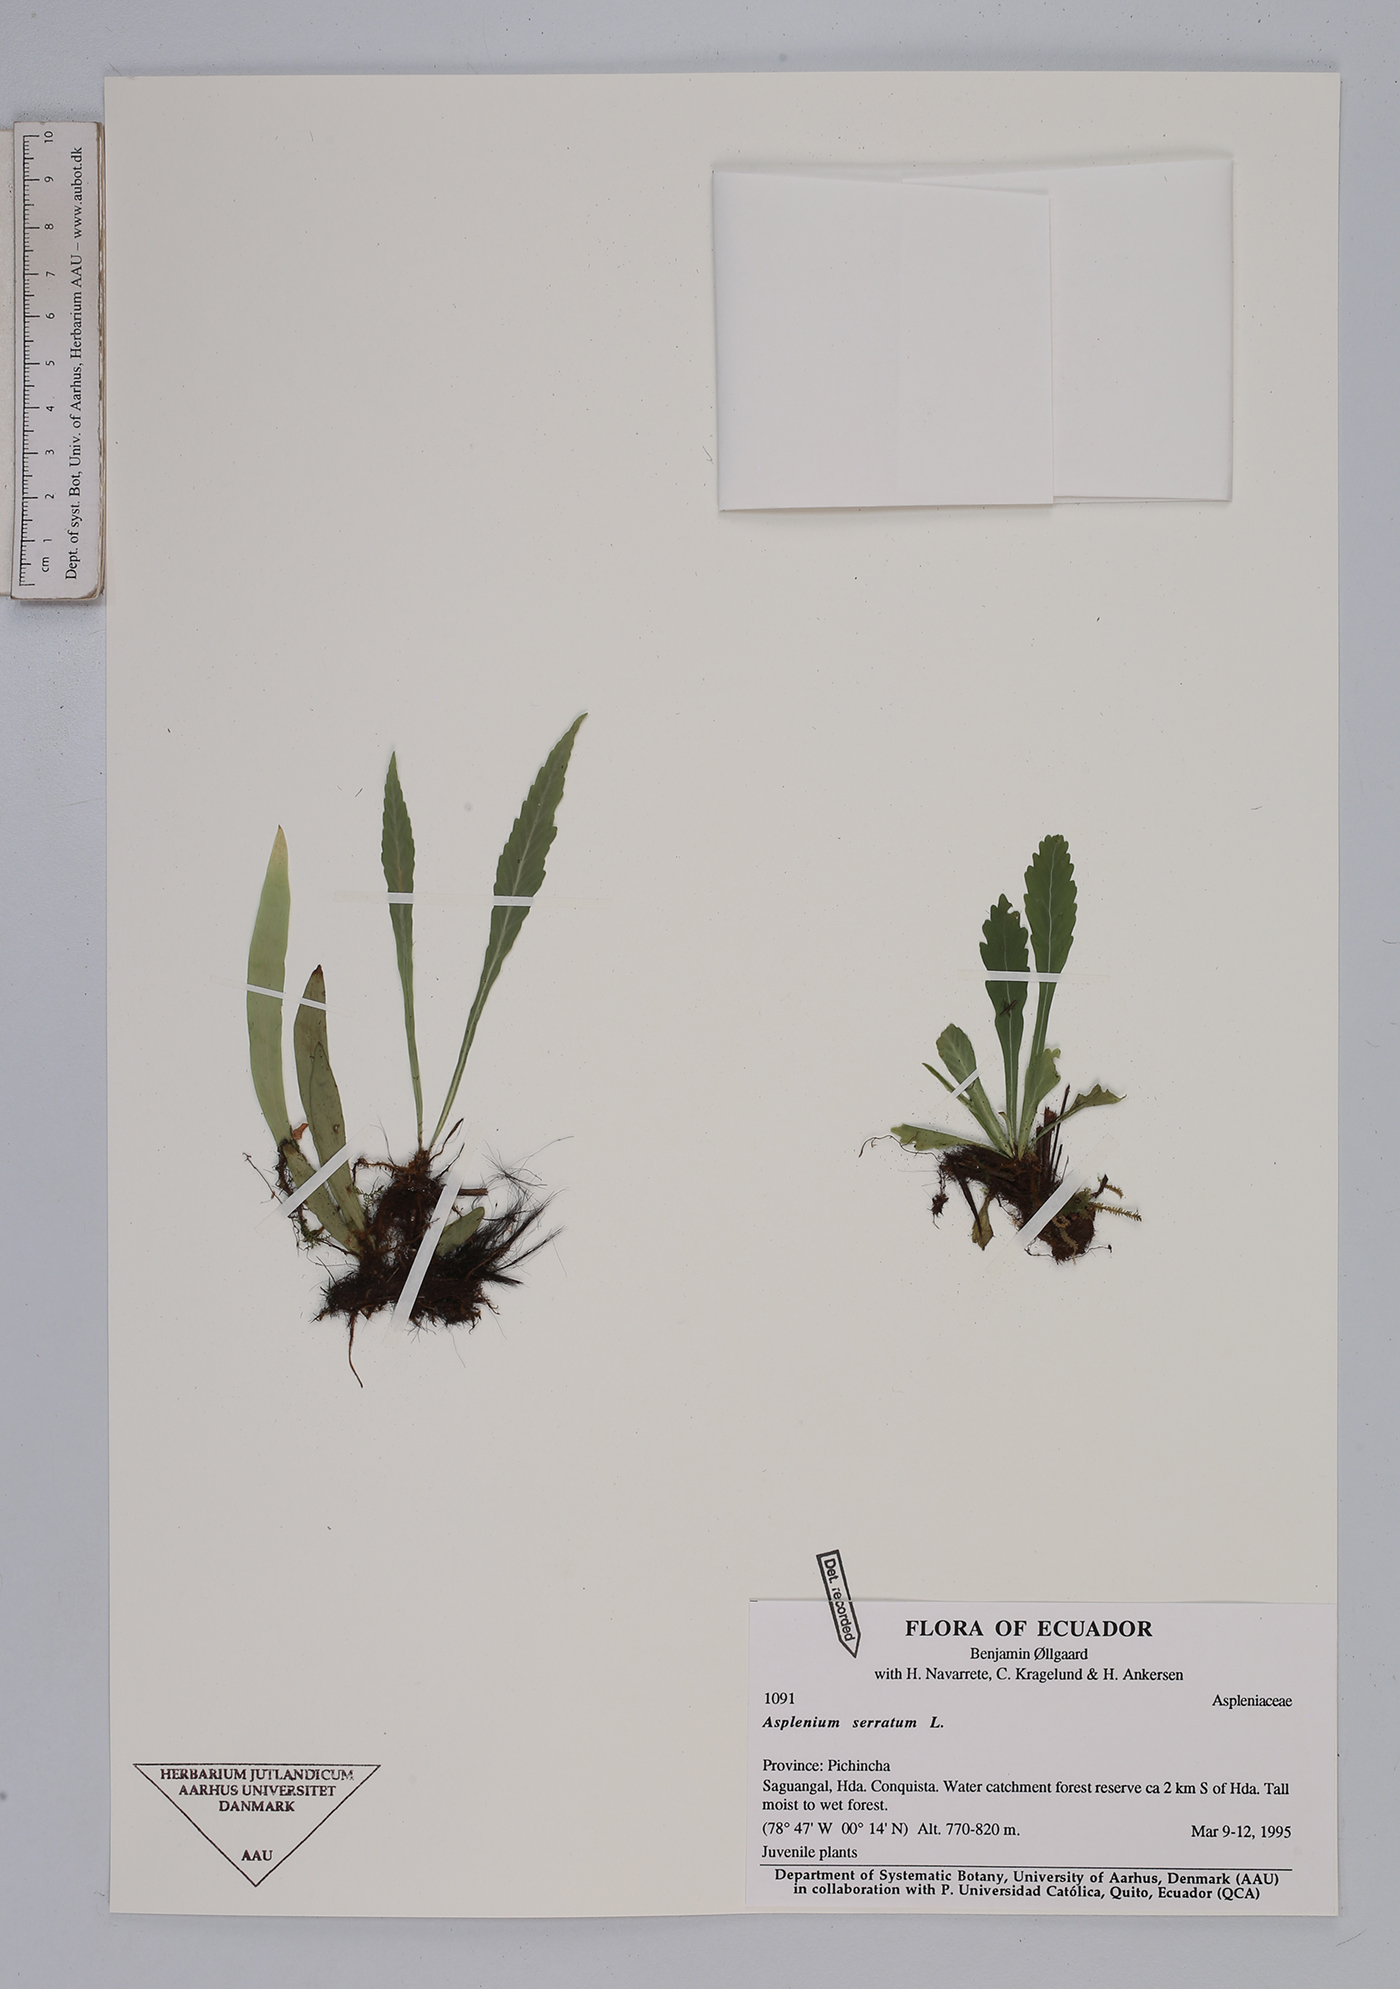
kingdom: Plantae
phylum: Tracheophyta
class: Polypodiopsida
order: Polypodiales
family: Aspleniaceae
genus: Asplenium
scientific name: Asplenium serratum
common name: Wild birdnest fern
